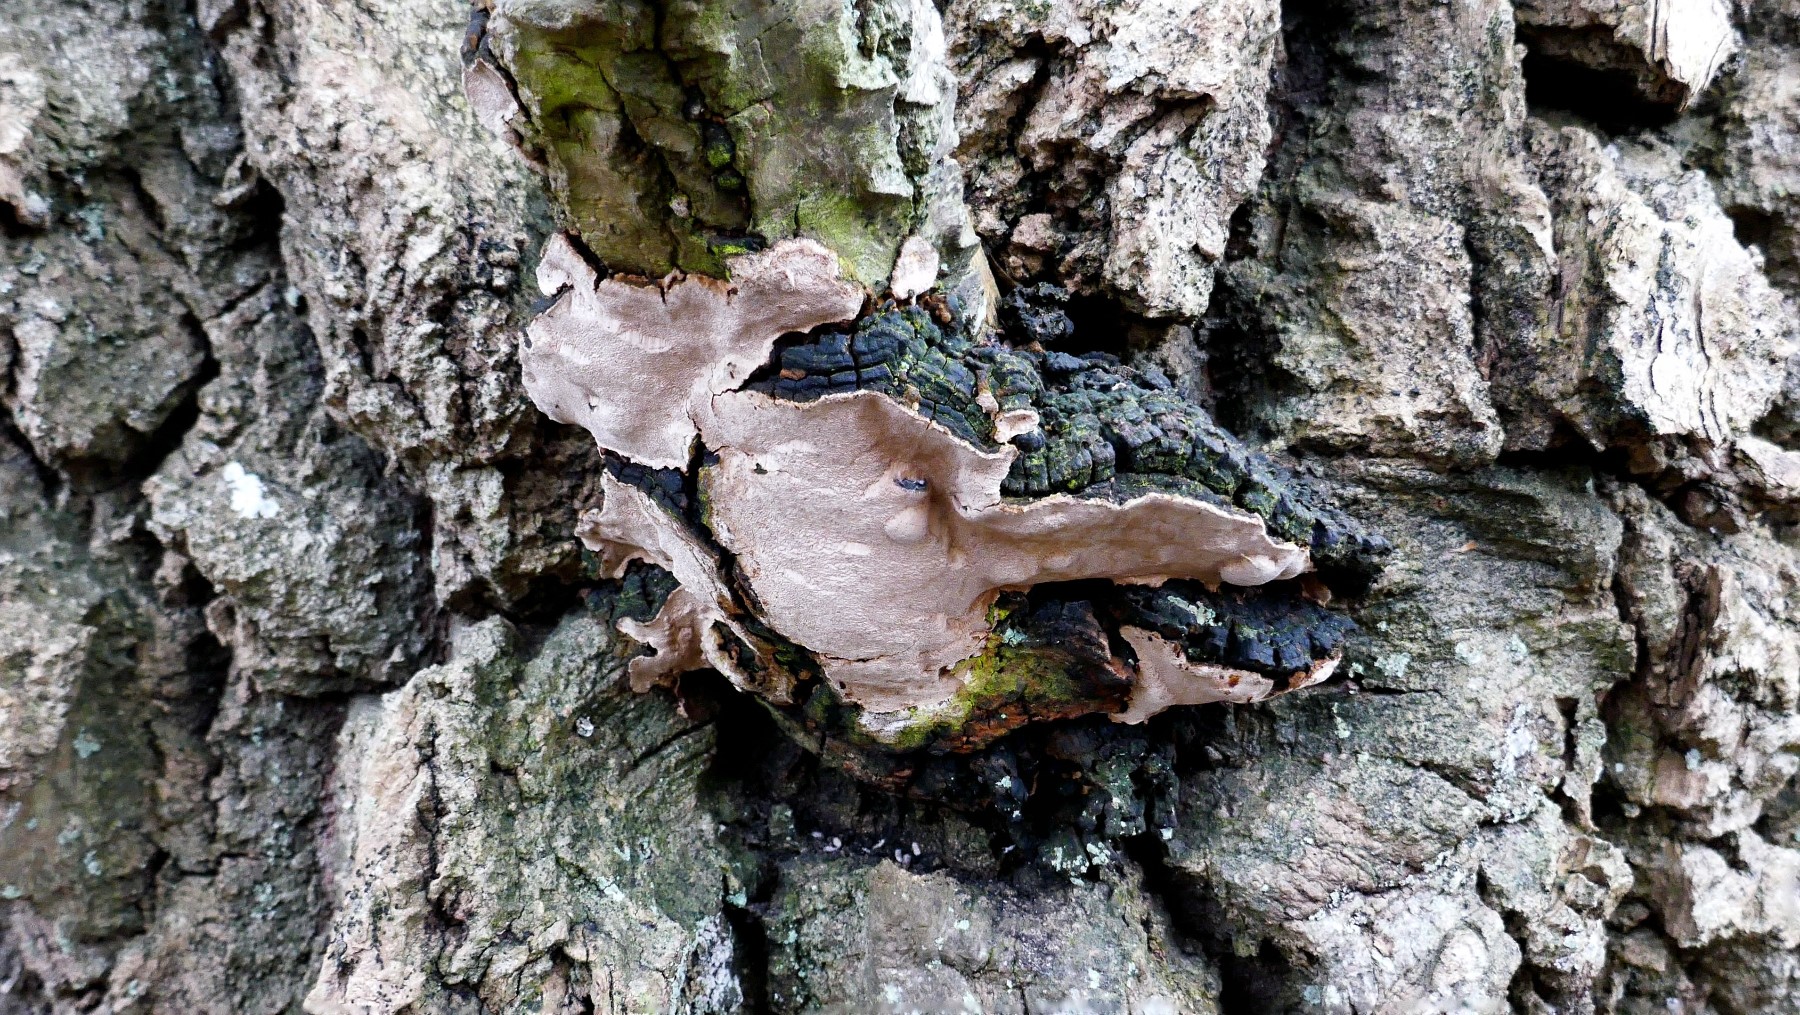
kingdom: Fungi
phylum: Basidiomycota
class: Agaricomycetes
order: Hymenochaetales
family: Hymenochaetaceae
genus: Phellinus
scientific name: Phellinus tremulae
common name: aspe-ildporesvamp
